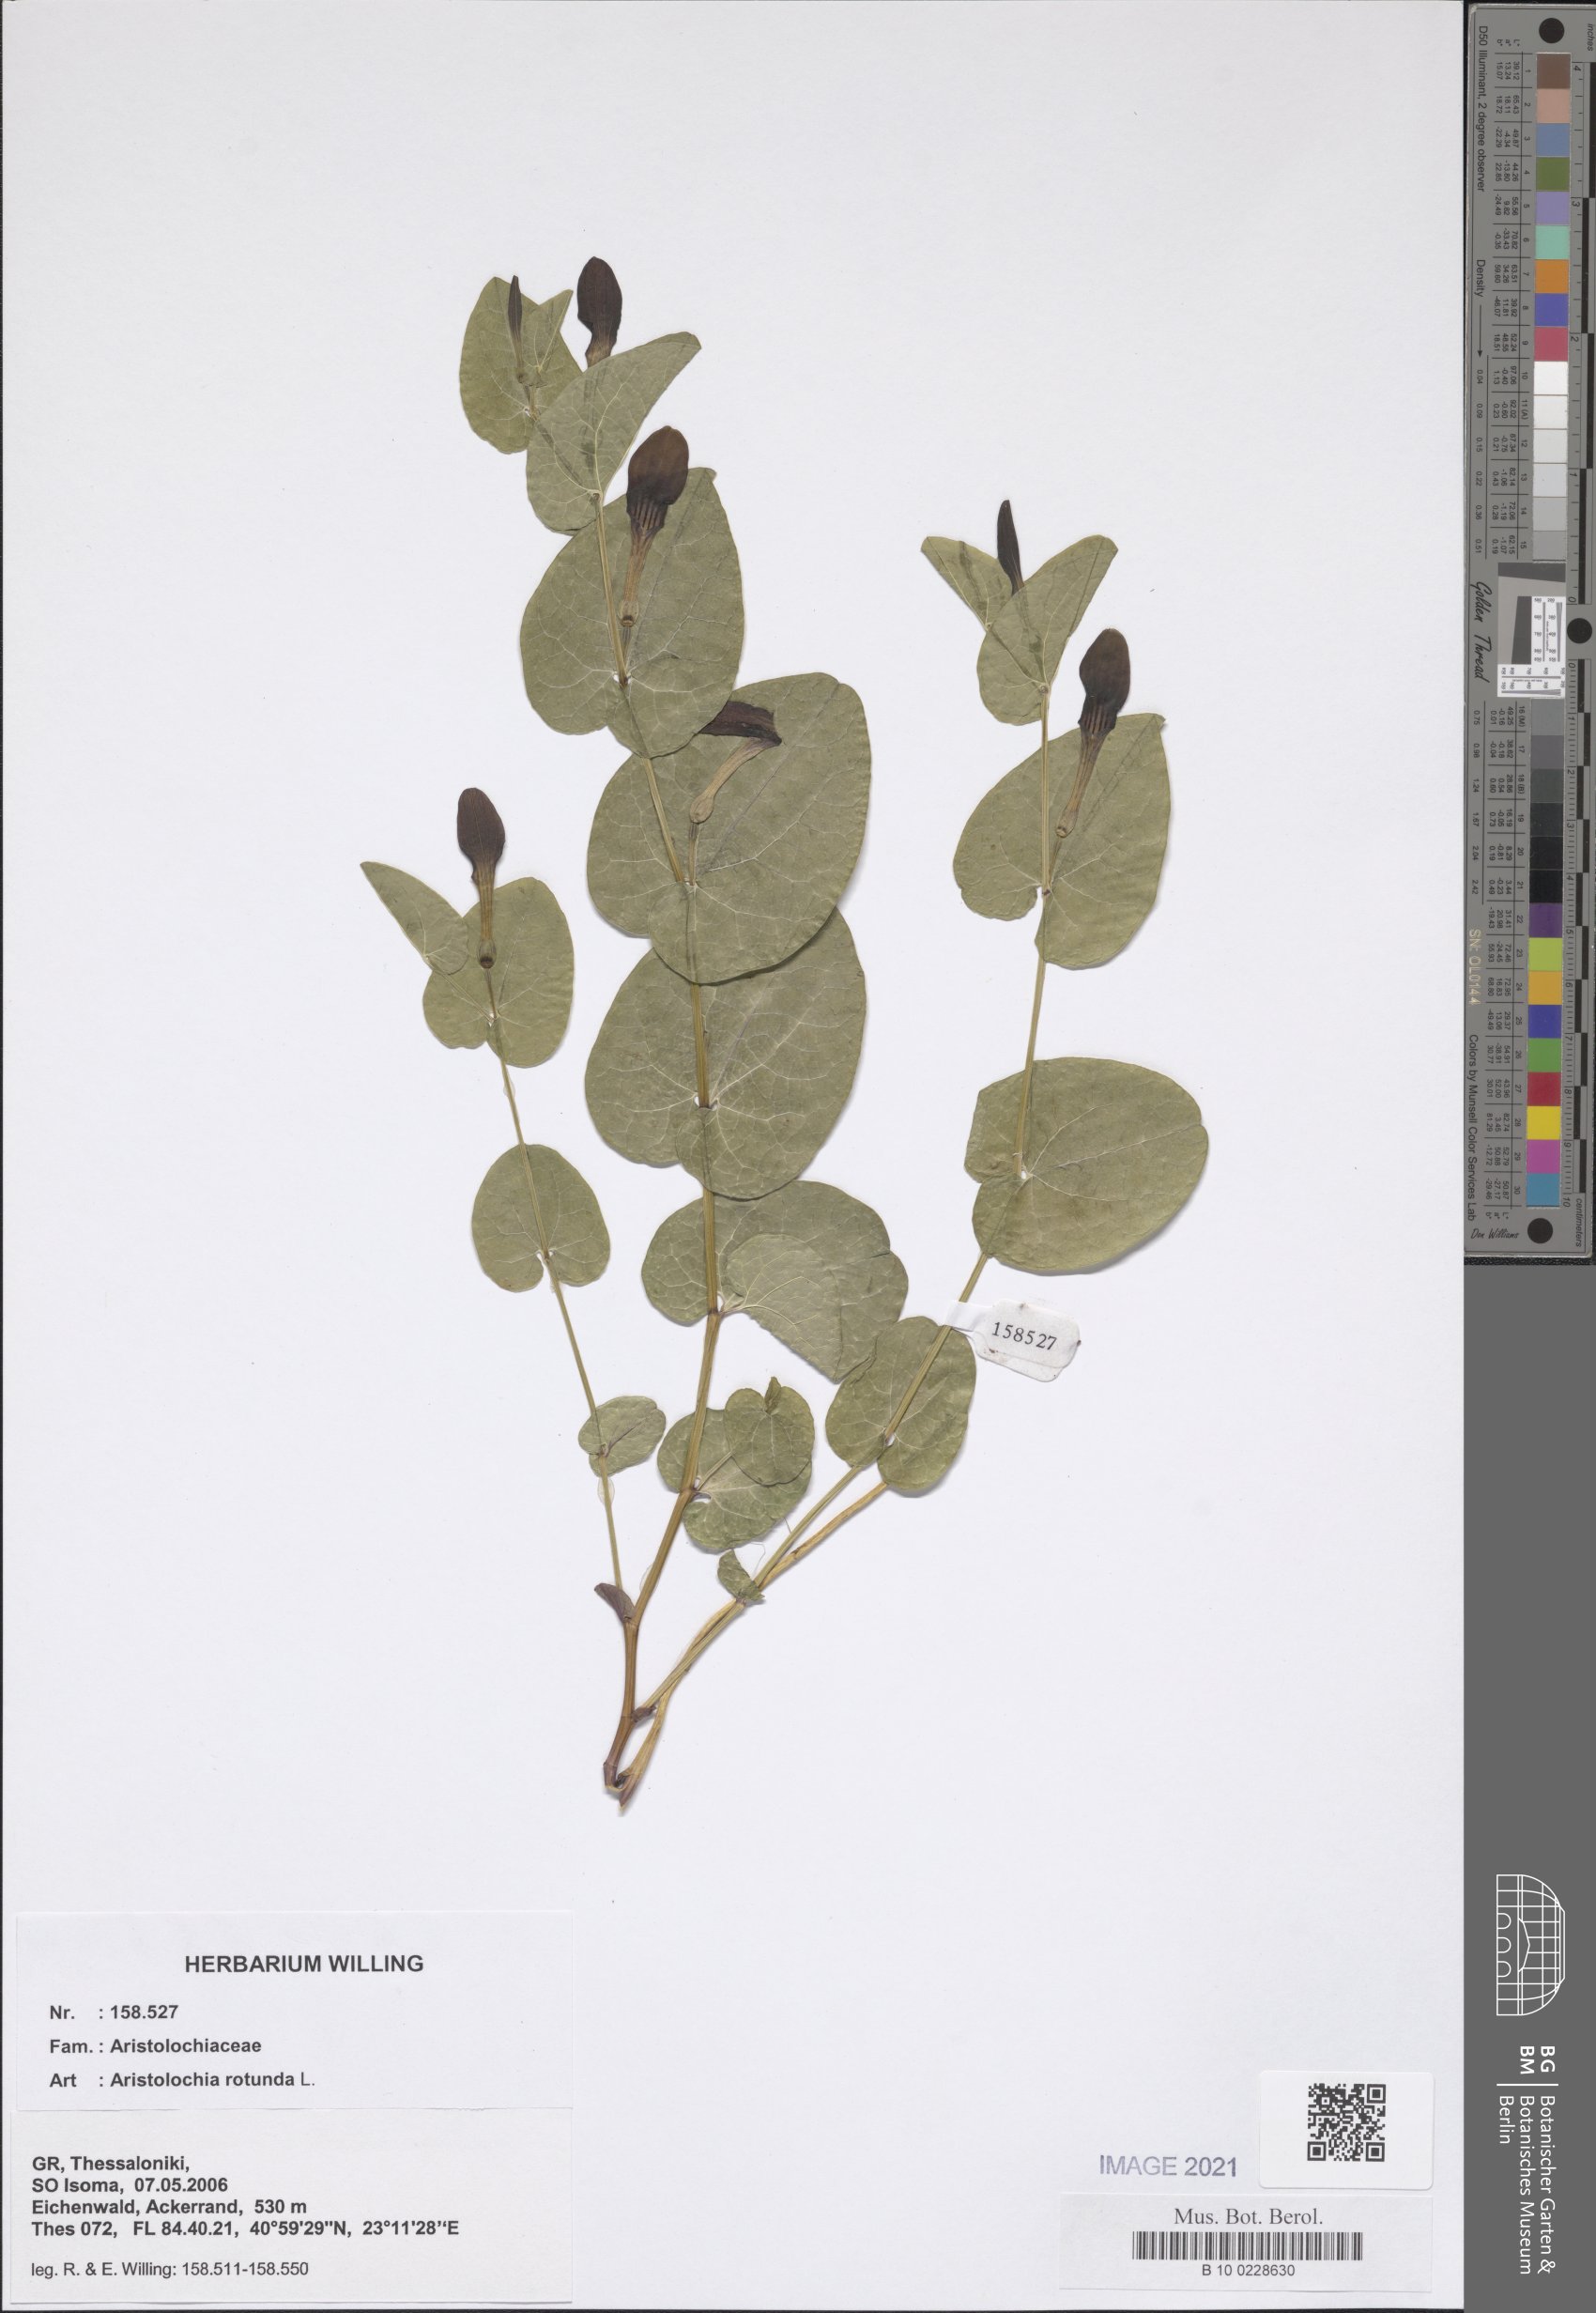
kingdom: Plantae
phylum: Tracheophyta
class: Magnoliopsida
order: Piperales
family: Aristolochiaceae
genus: Aristolochia
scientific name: Aristolochia rotunda
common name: Smearwort
